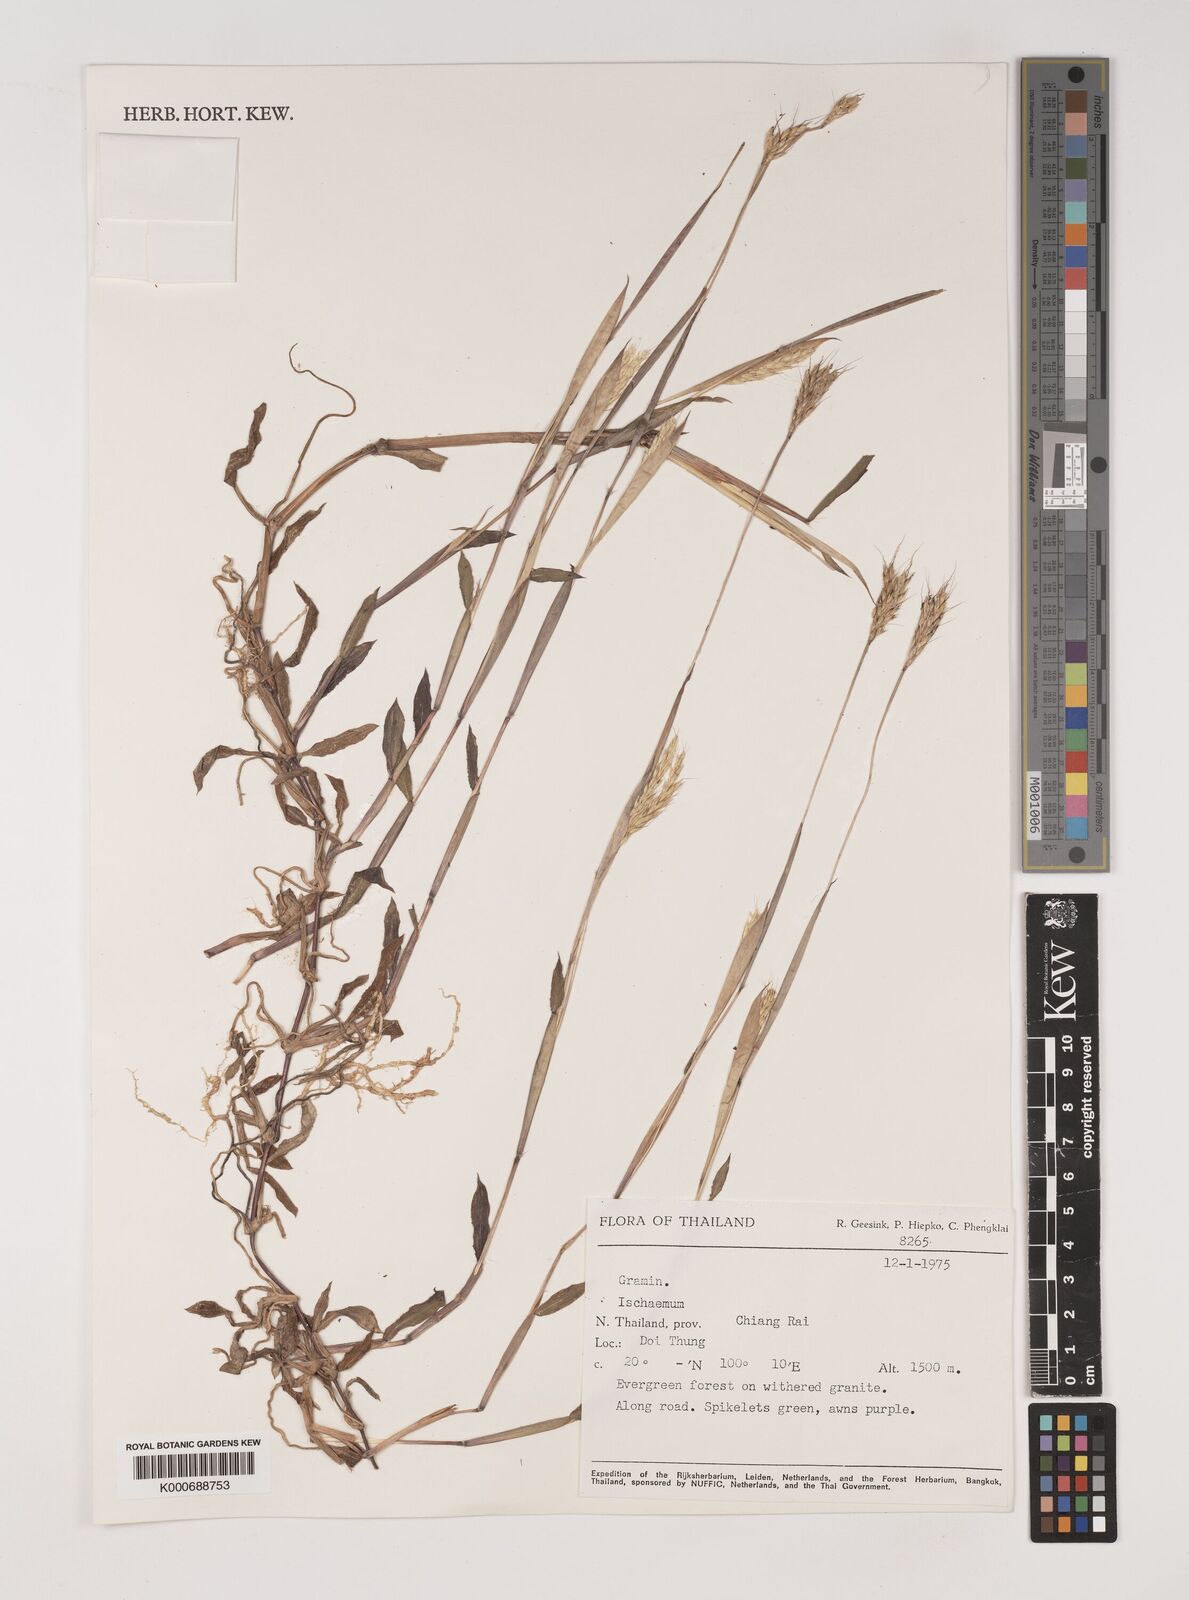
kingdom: Plantae
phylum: Tracheophyta
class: Liliopsida
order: Poales
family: Poaceae
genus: Ischaemum
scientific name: Ischaemum timorense
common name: Stalkleaf murainagrass
